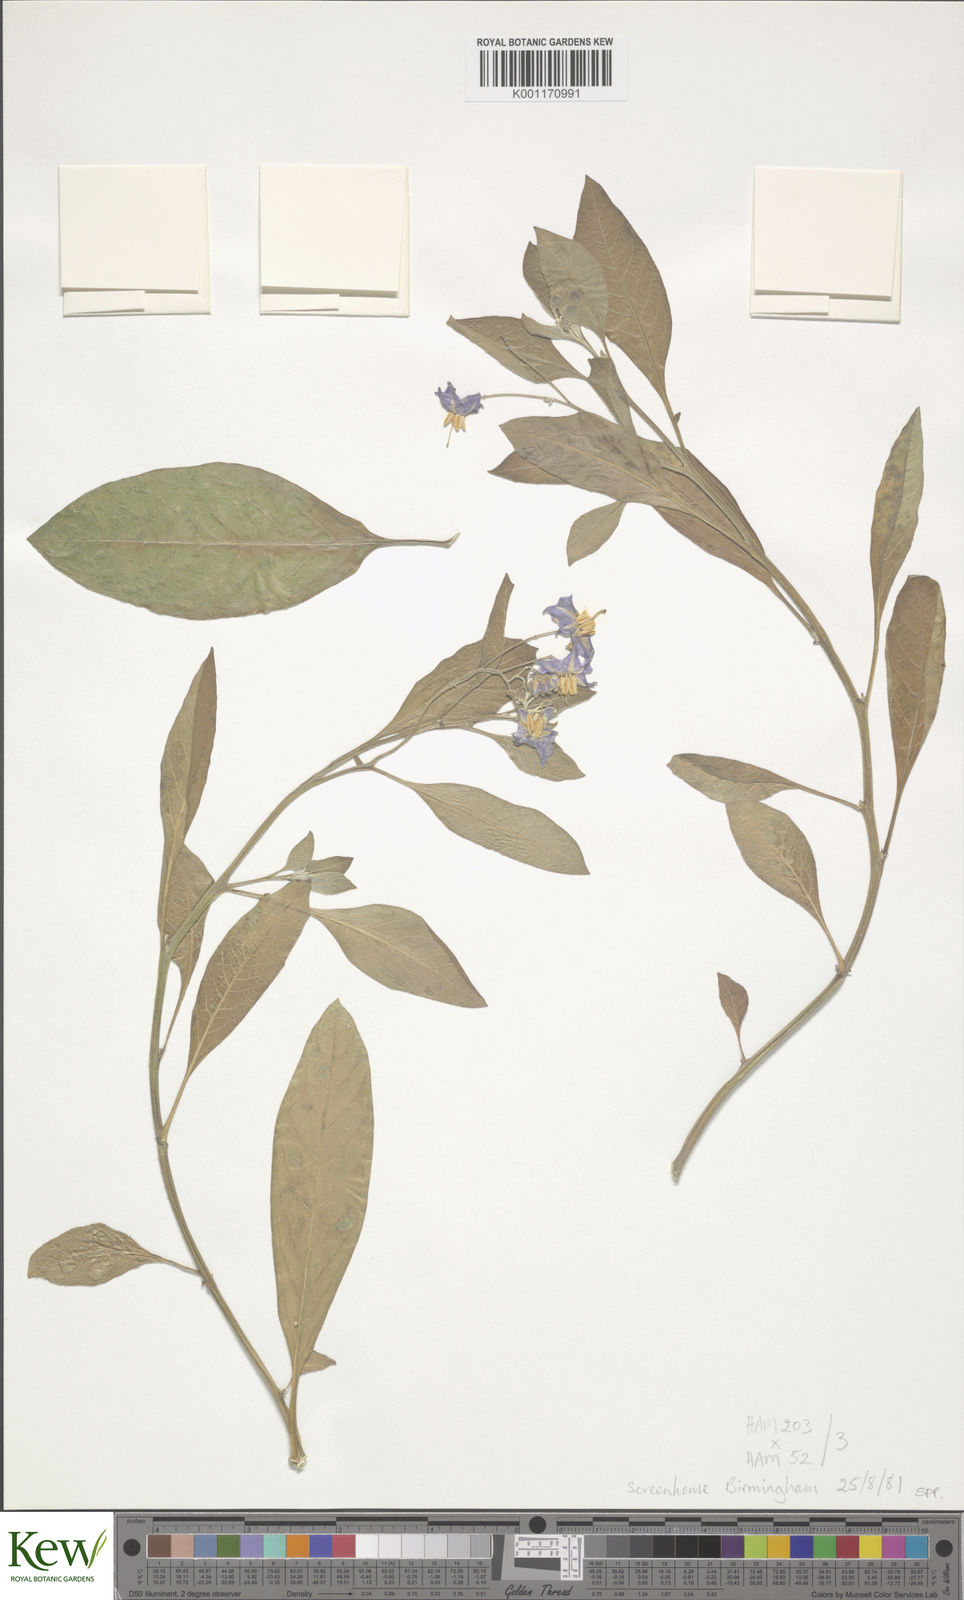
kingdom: Plantae
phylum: Tracheophyta
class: Magnoliopsida
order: Solanales
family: Solanaceae
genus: Solanum
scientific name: Solanum
